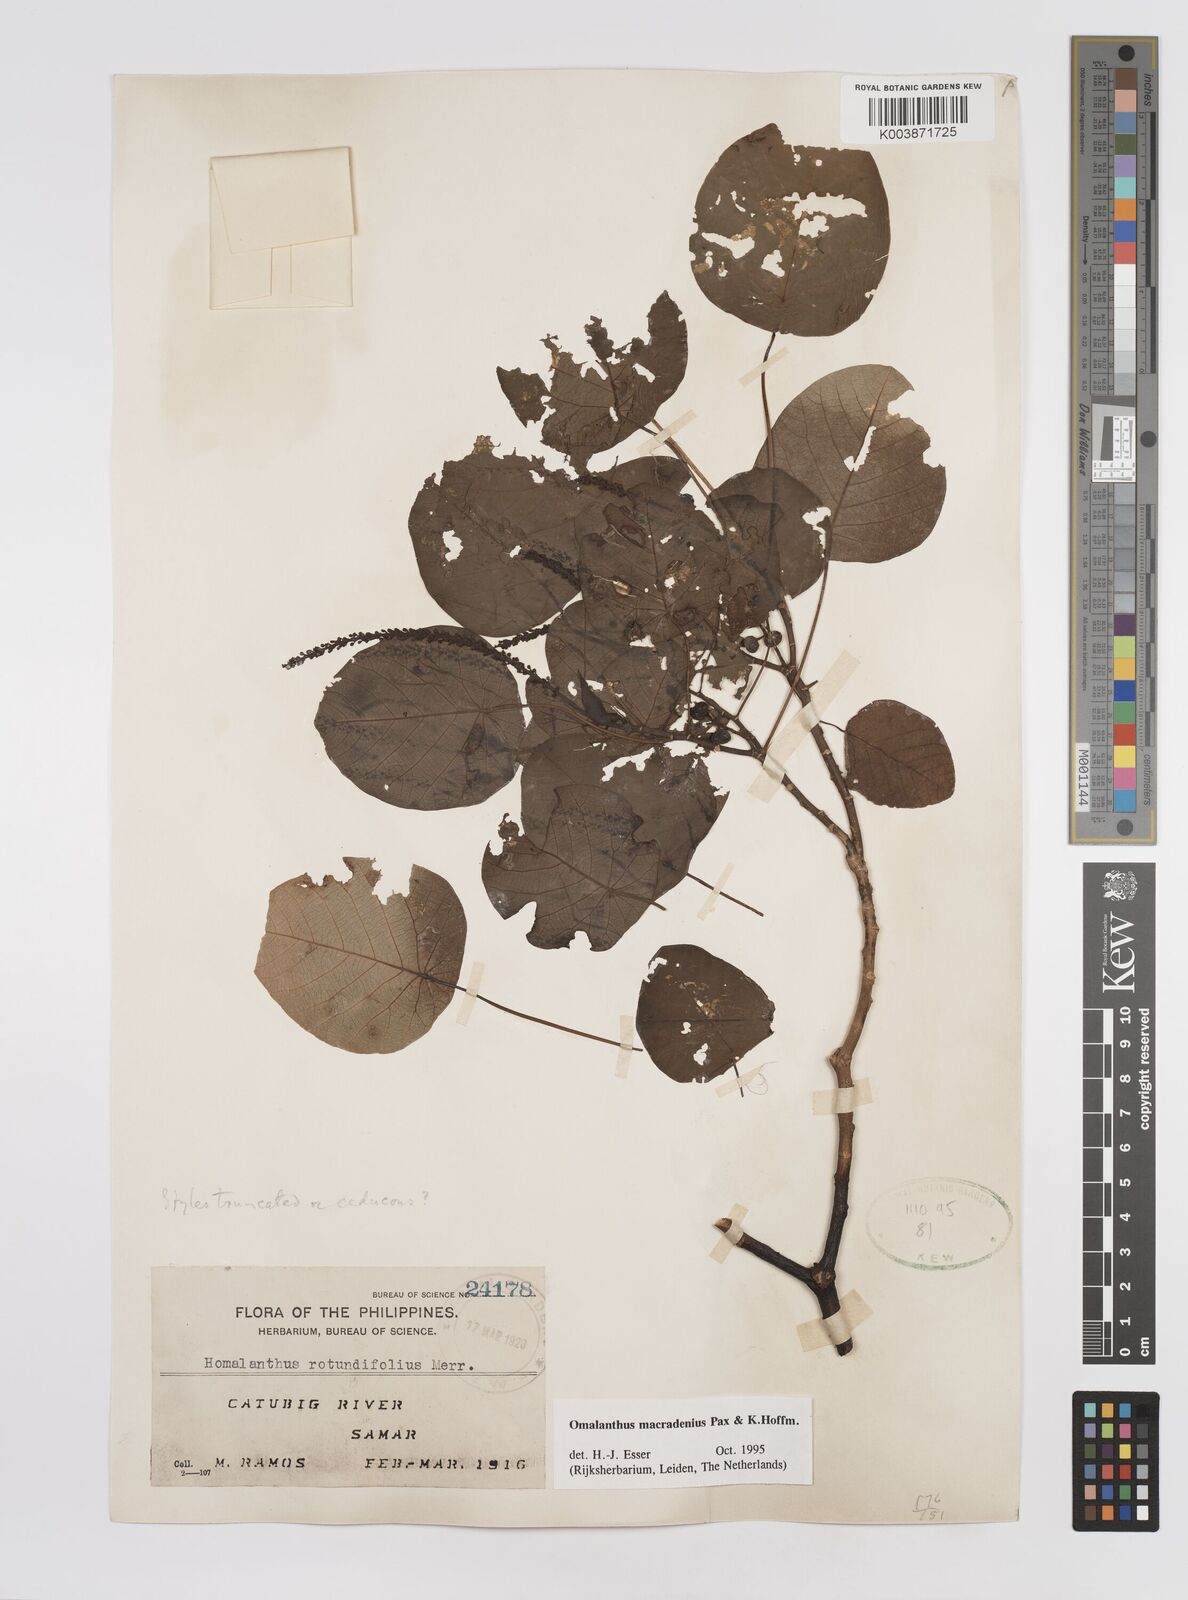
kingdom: Plantae
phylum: Tracheophyta
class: Magnoliopsida
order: Malpighiales
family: Euphorbiaceae
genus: Homalanthus
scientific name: Homalanthus macradenius
